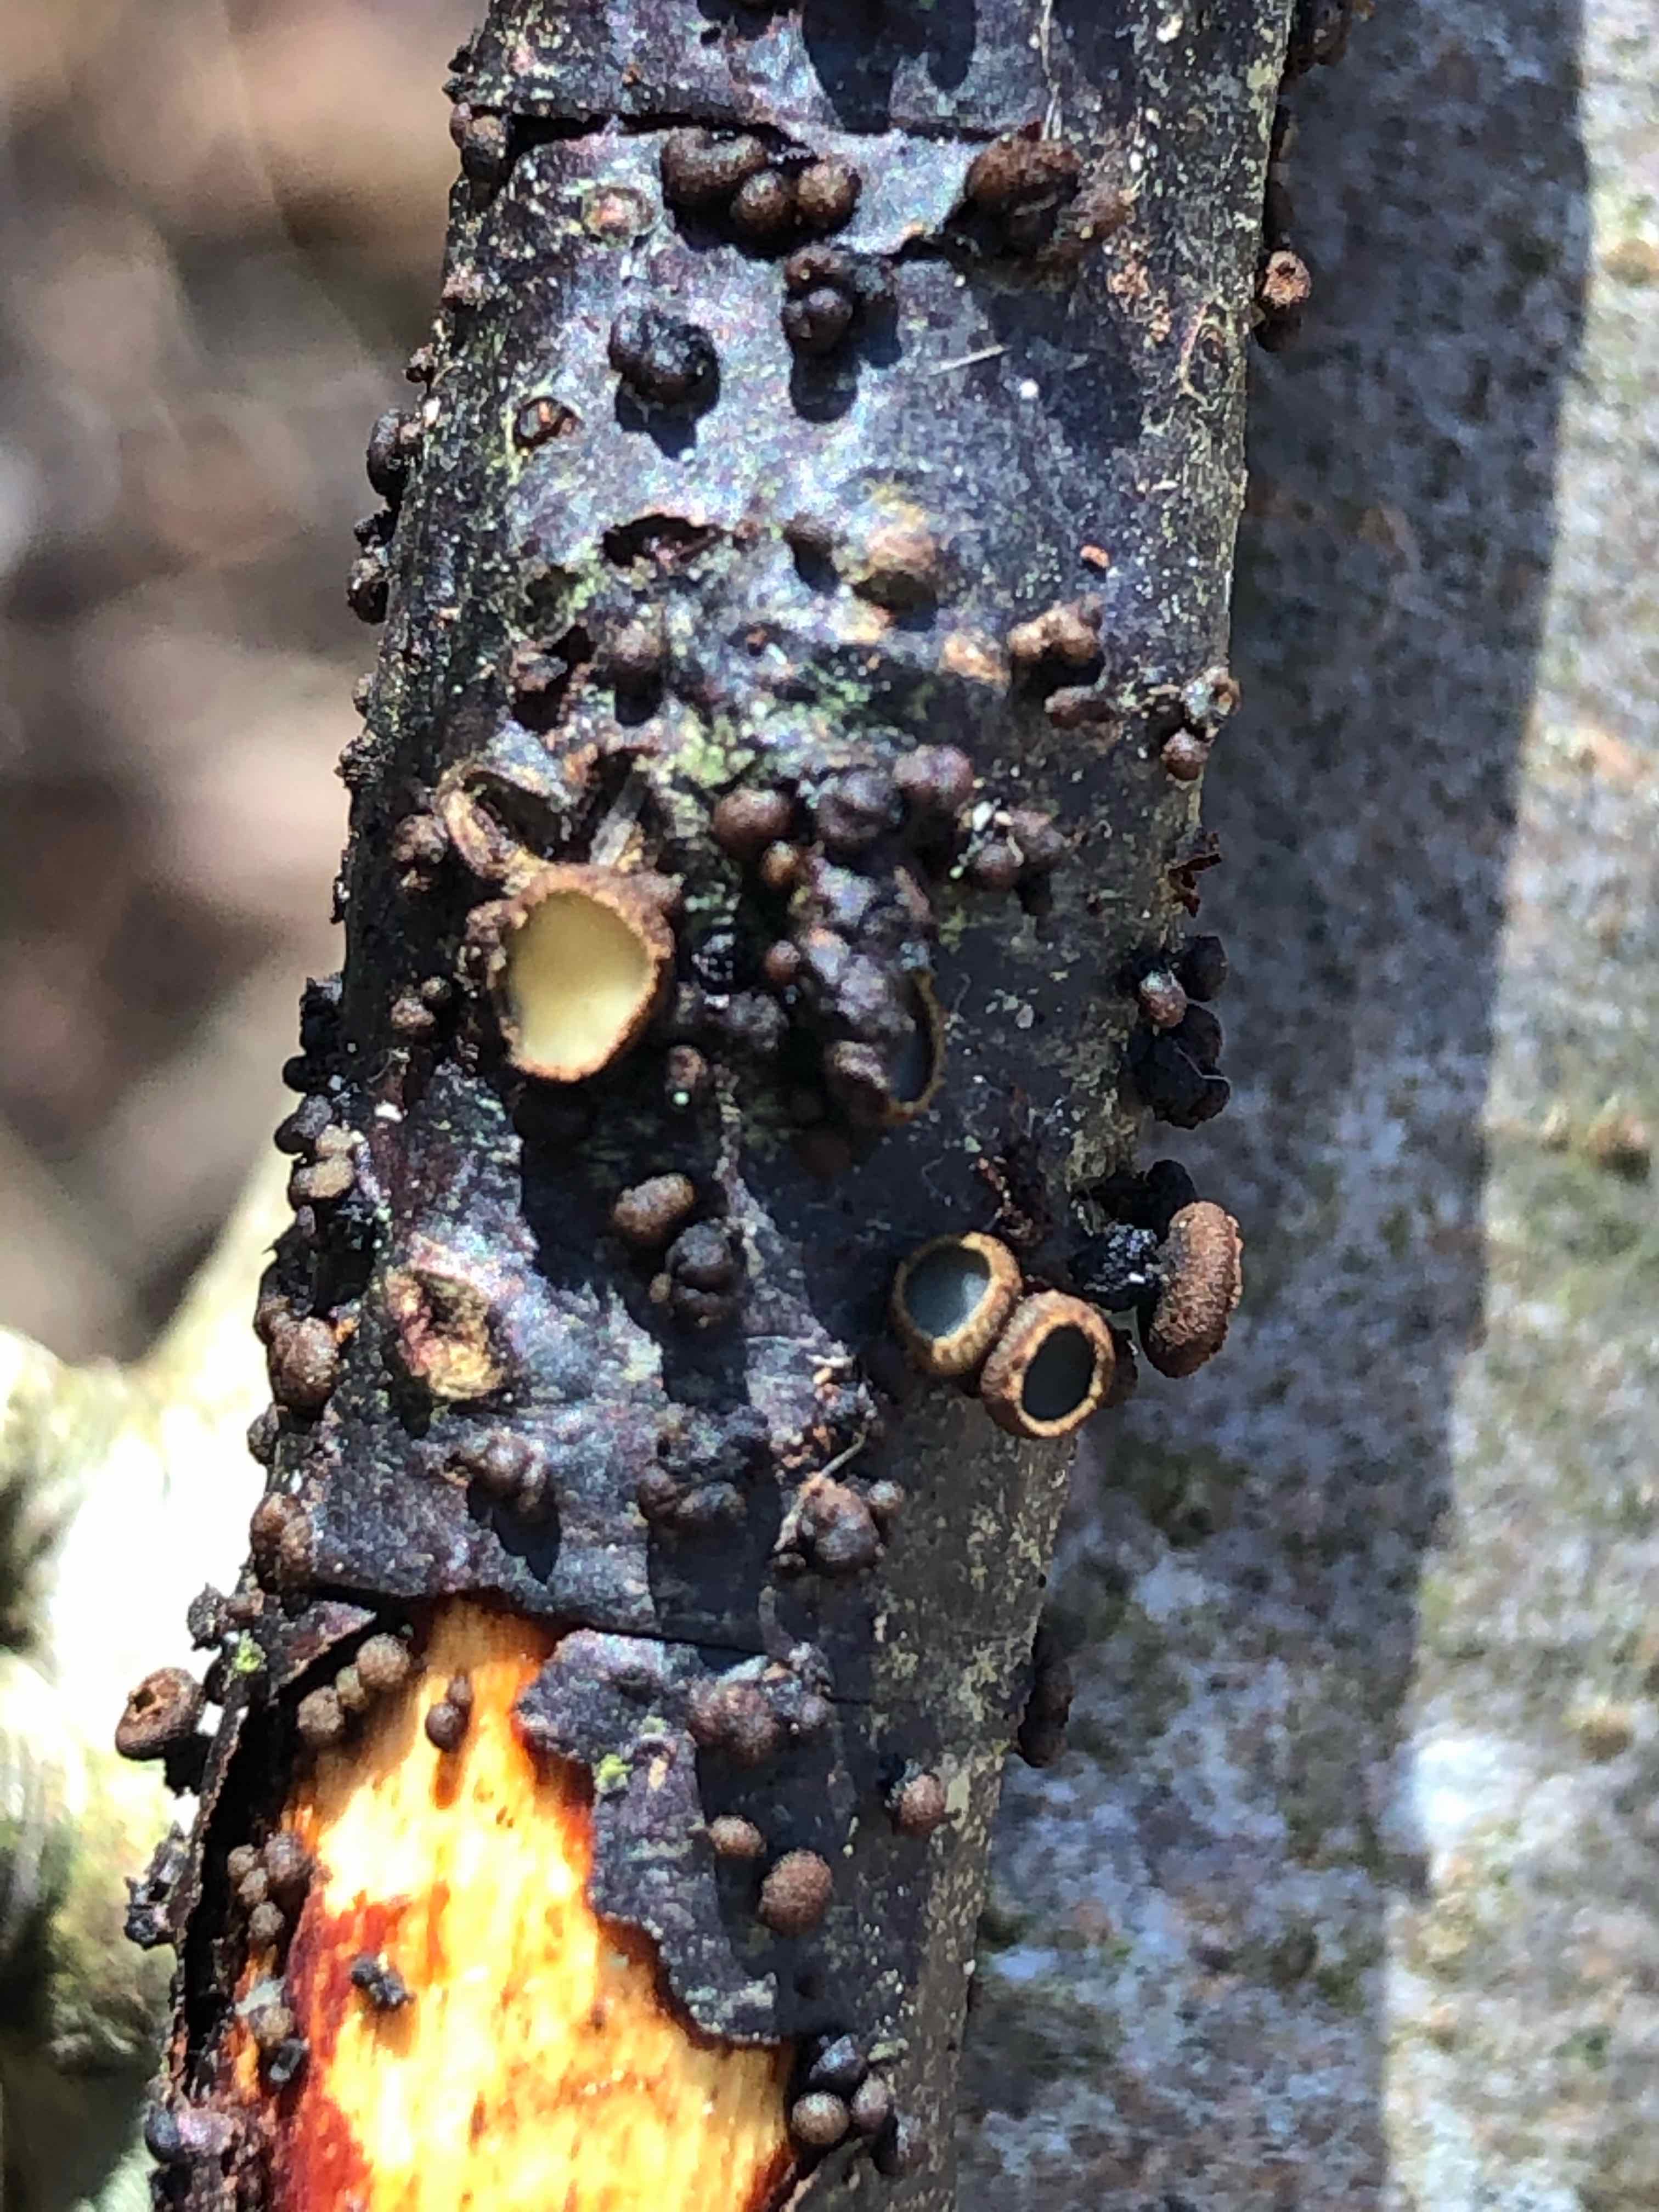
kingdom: Fungi
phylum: Ascomycota
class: Leotiomycetes
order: Helotiales
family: Godroniaceae
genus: Godronia
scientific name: Godronia ribis
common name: ribs-urneskive
